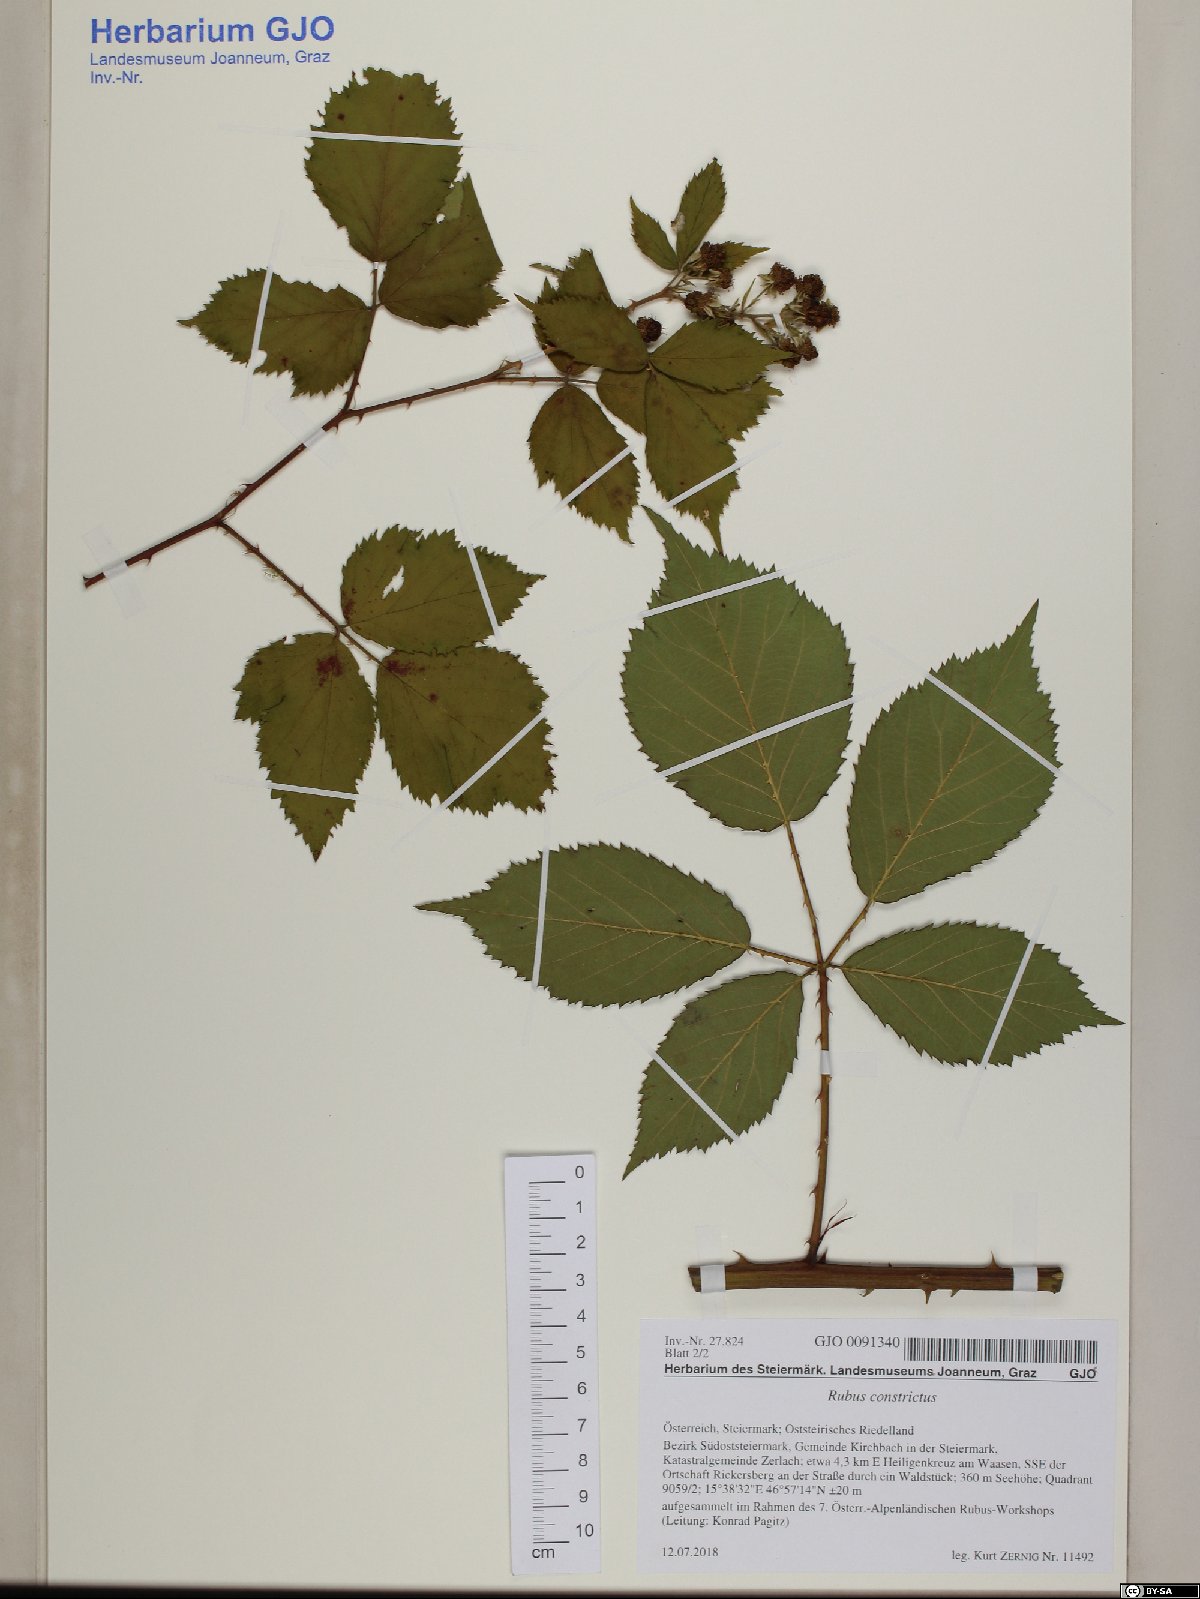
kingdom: Plantae
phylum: Tracheophyta
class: Magnoliopsida
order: Rosales
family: Rosaceae
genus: Rubus
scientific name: Rubus constrictus
